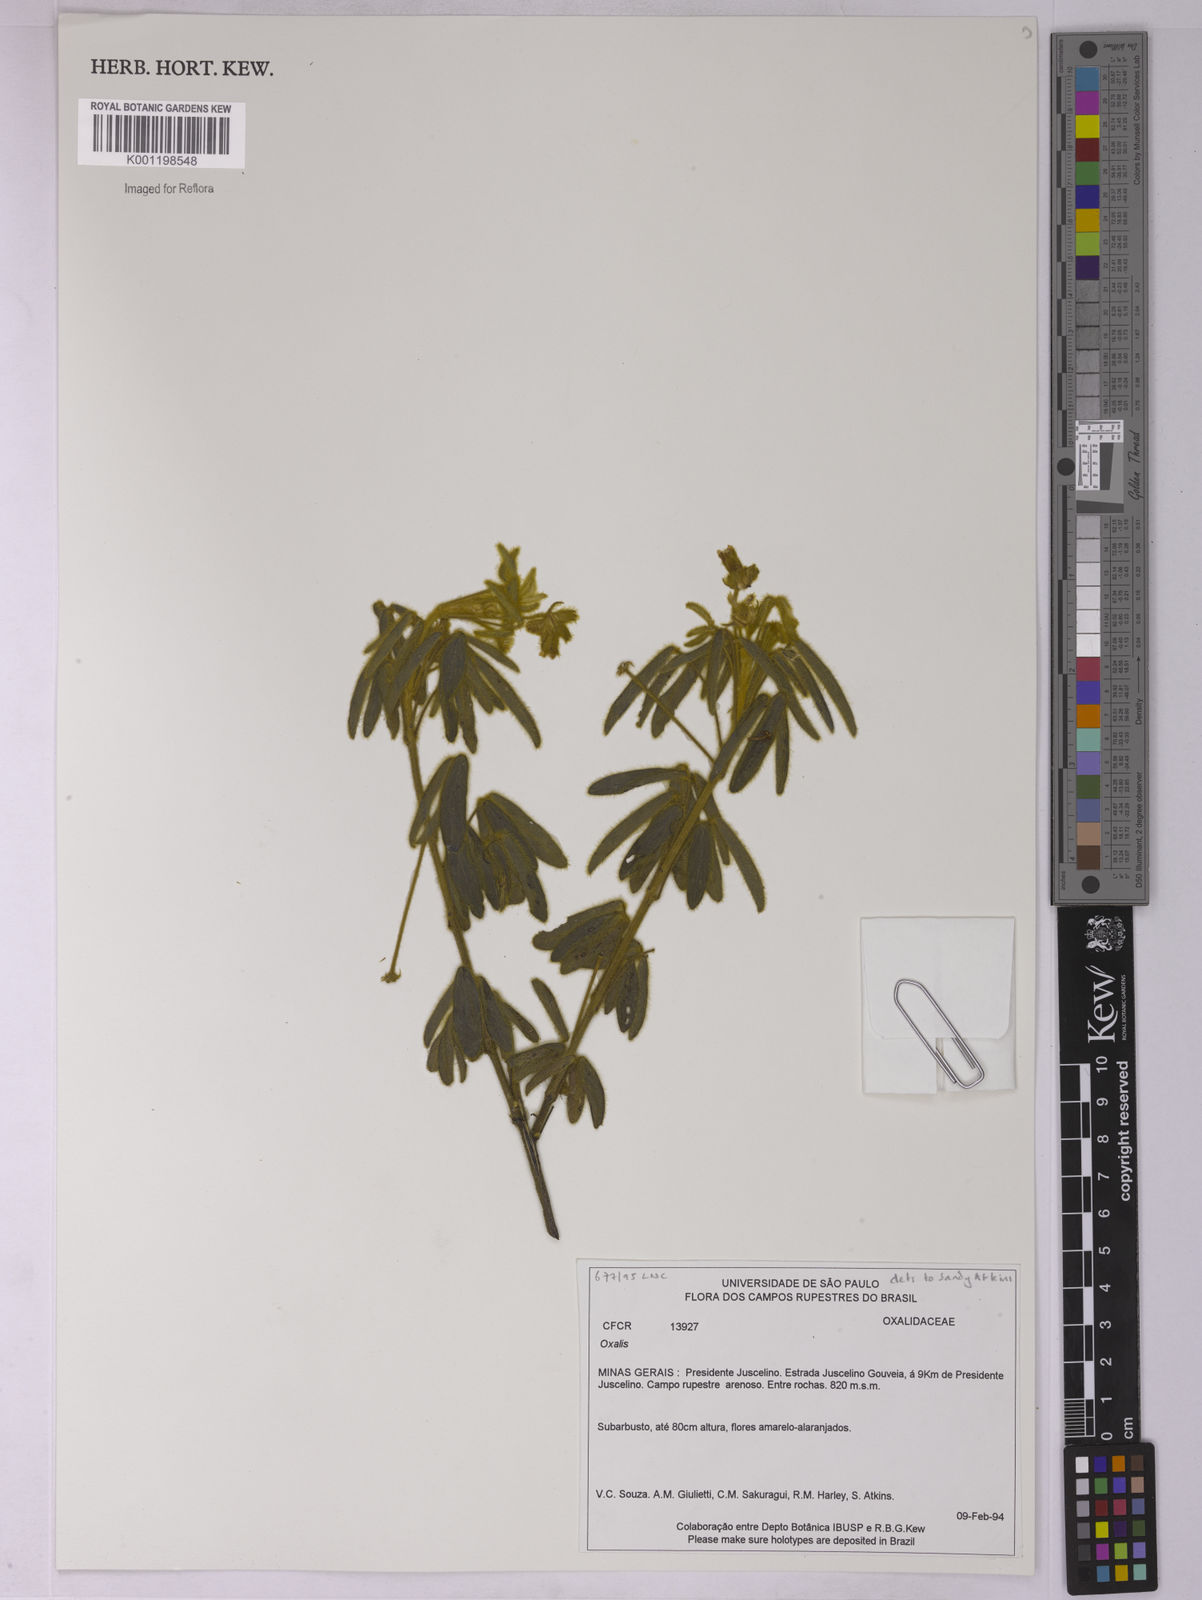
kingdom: Plantae
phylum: Tracheophyta
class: Magnoliopsida
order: Oxalidales
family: Oxalidaceae
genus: Oxalis
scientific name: Oxalis
